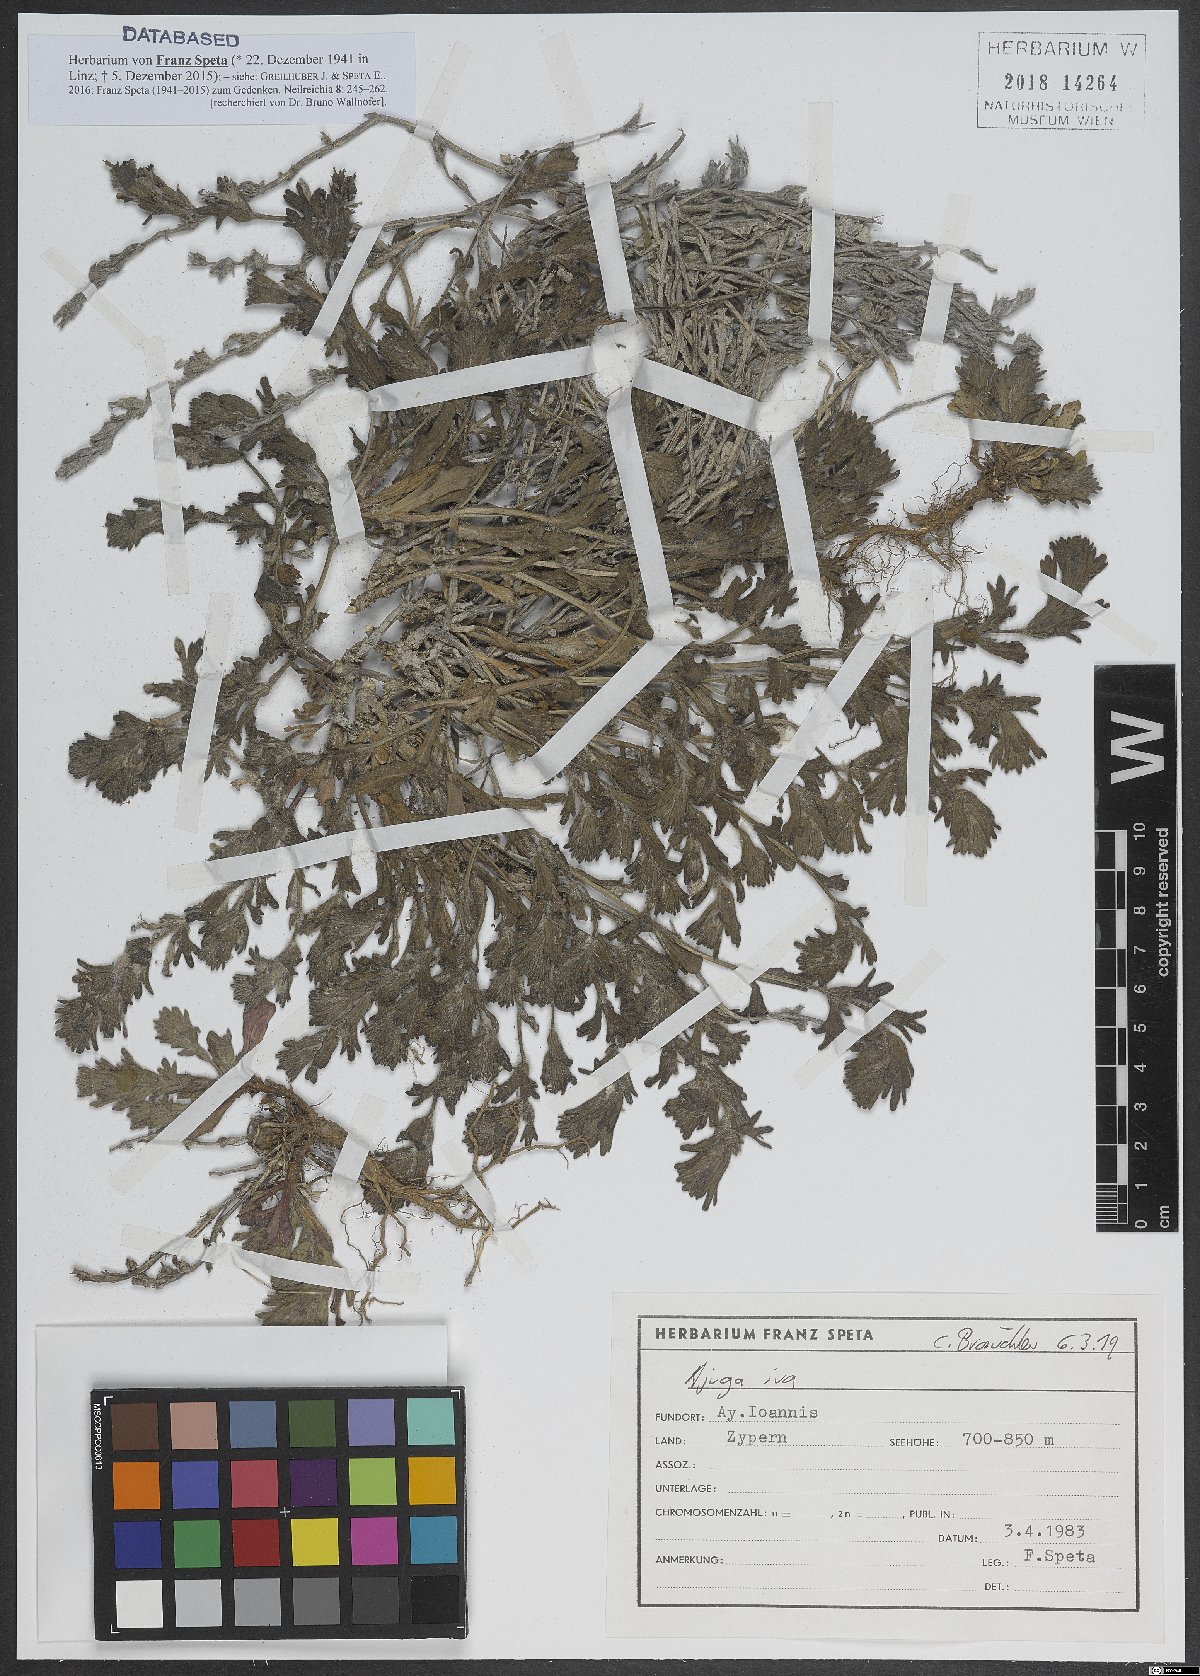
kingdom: Plantae
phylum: Tracheophyta
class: Magnoliopsida
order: Lamiales
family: Lamiaceae
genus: Ajuga
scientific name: Ajuga iva
